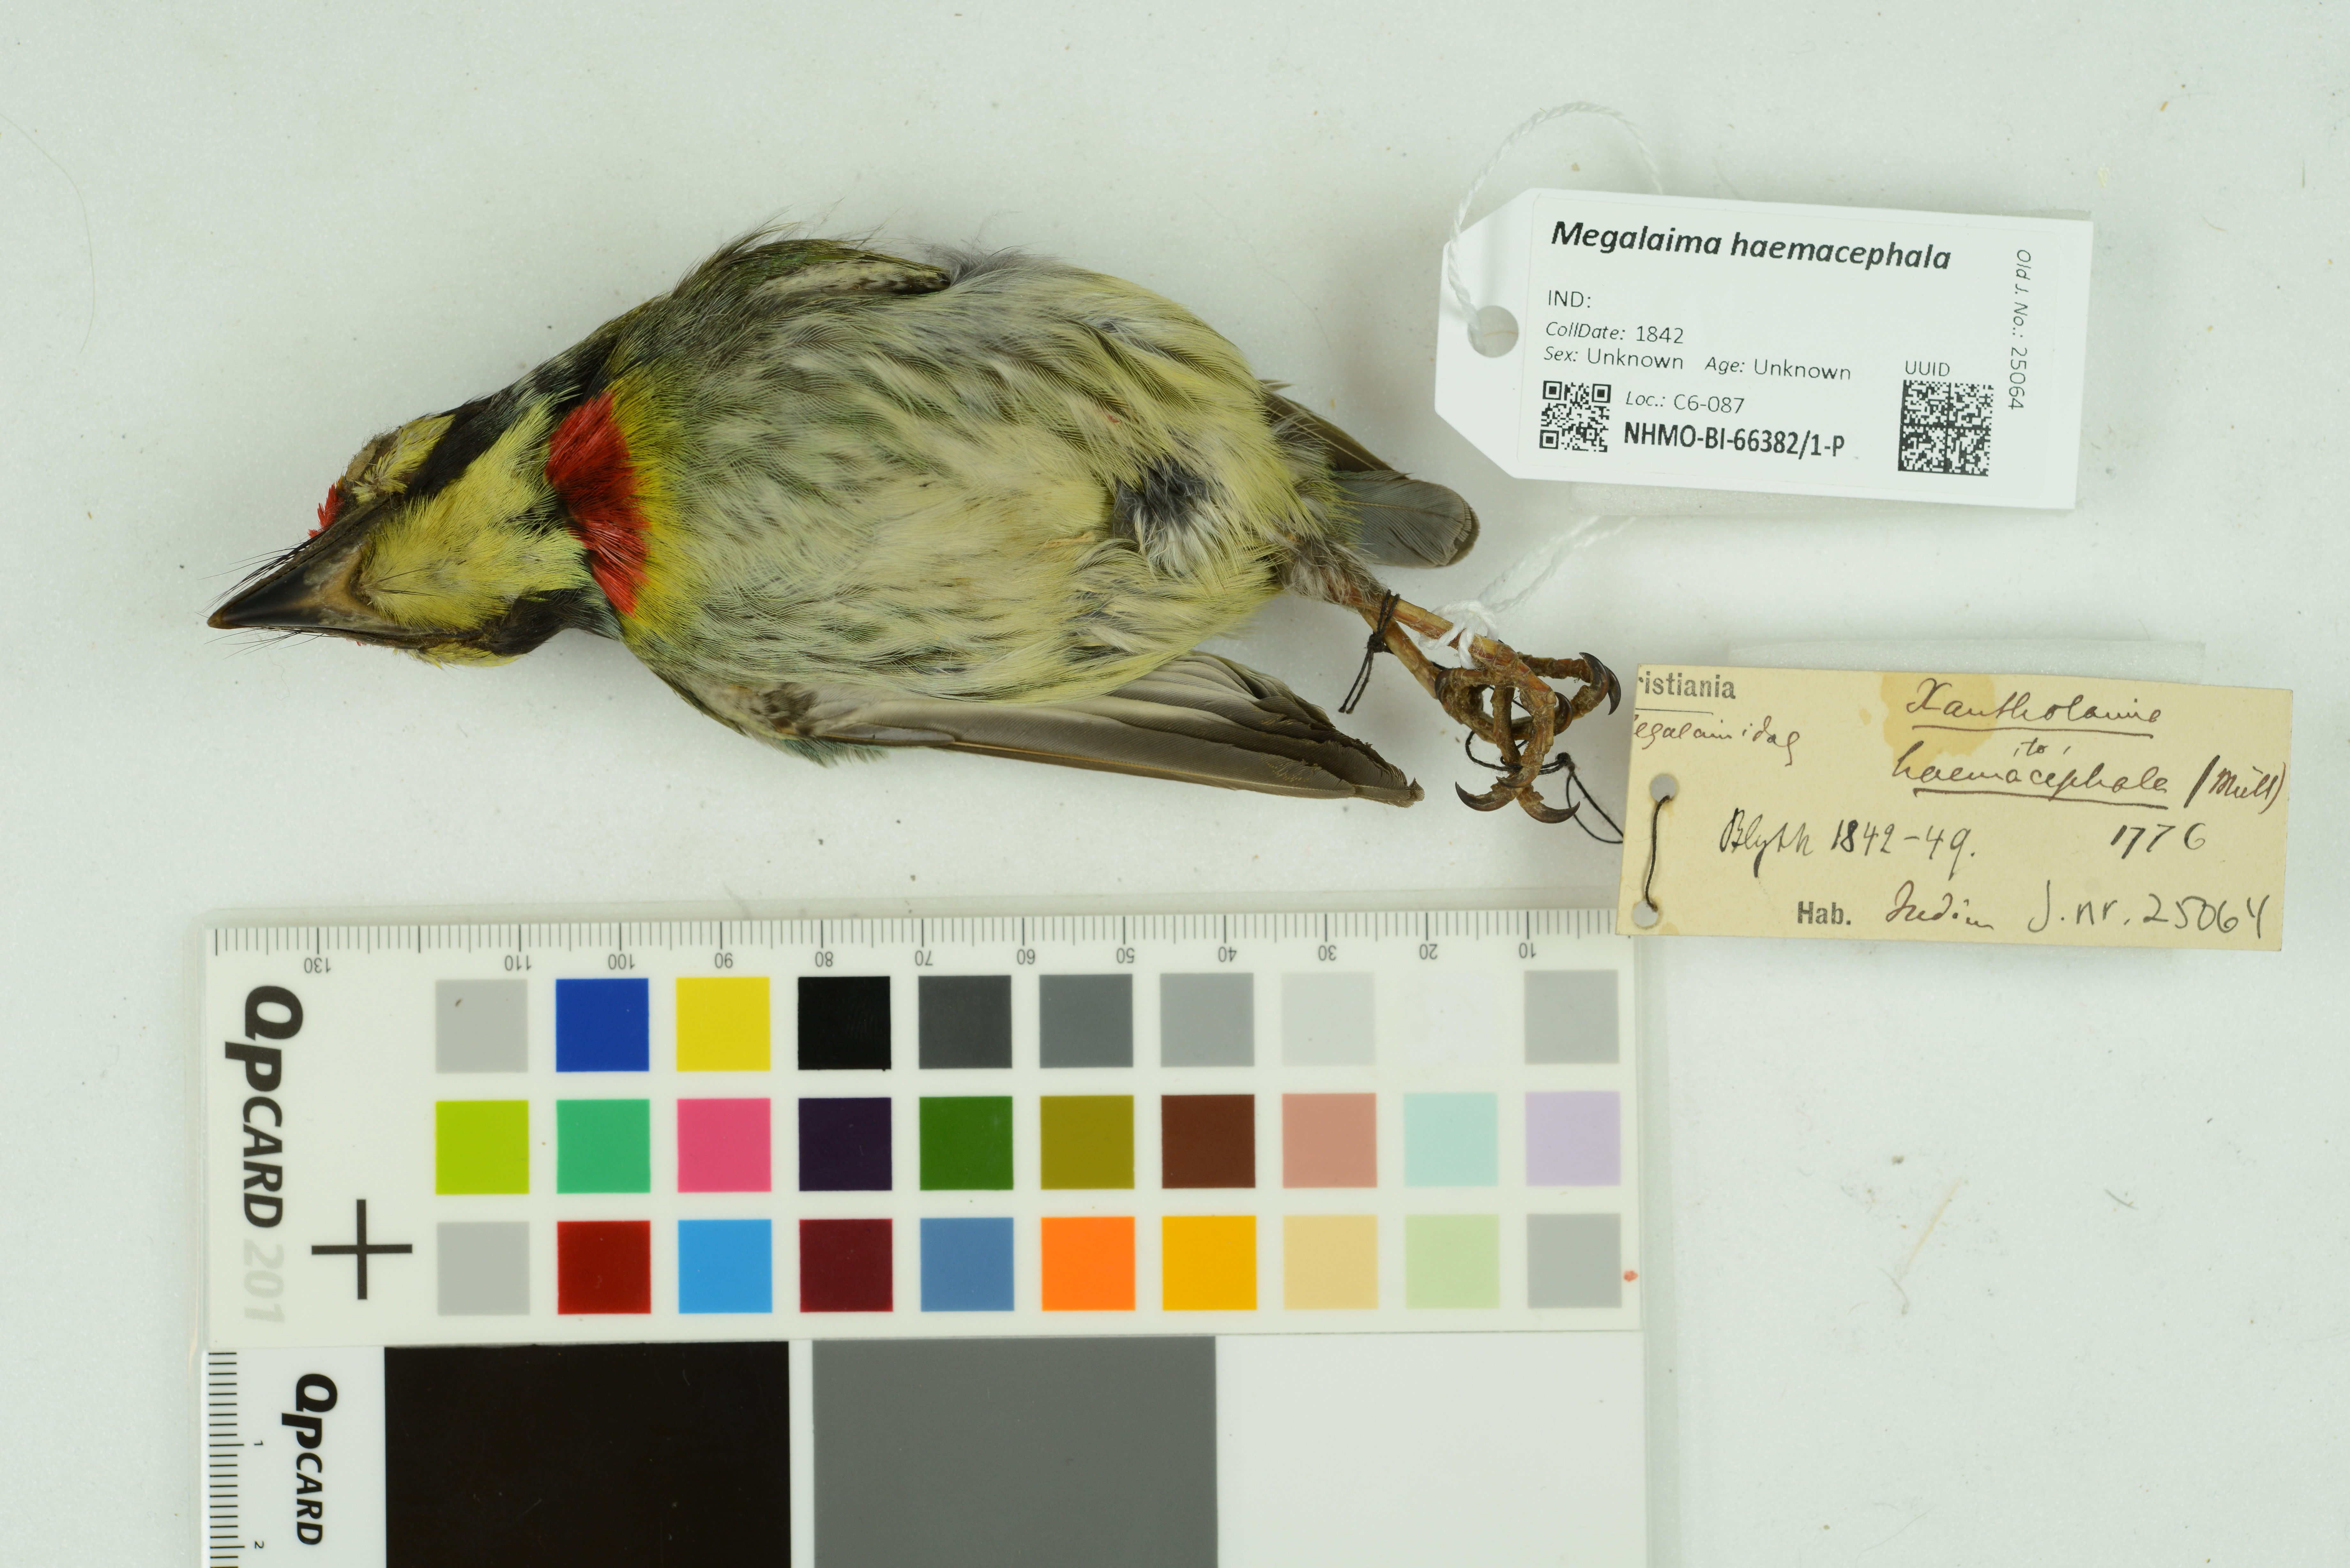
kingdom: Animalia
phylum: Chordata
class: Aves
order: Piciformes
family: Megalaimidae
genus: Psilopogon
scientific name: Psilopogon haemacephalus
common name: Coppersmith barbet
